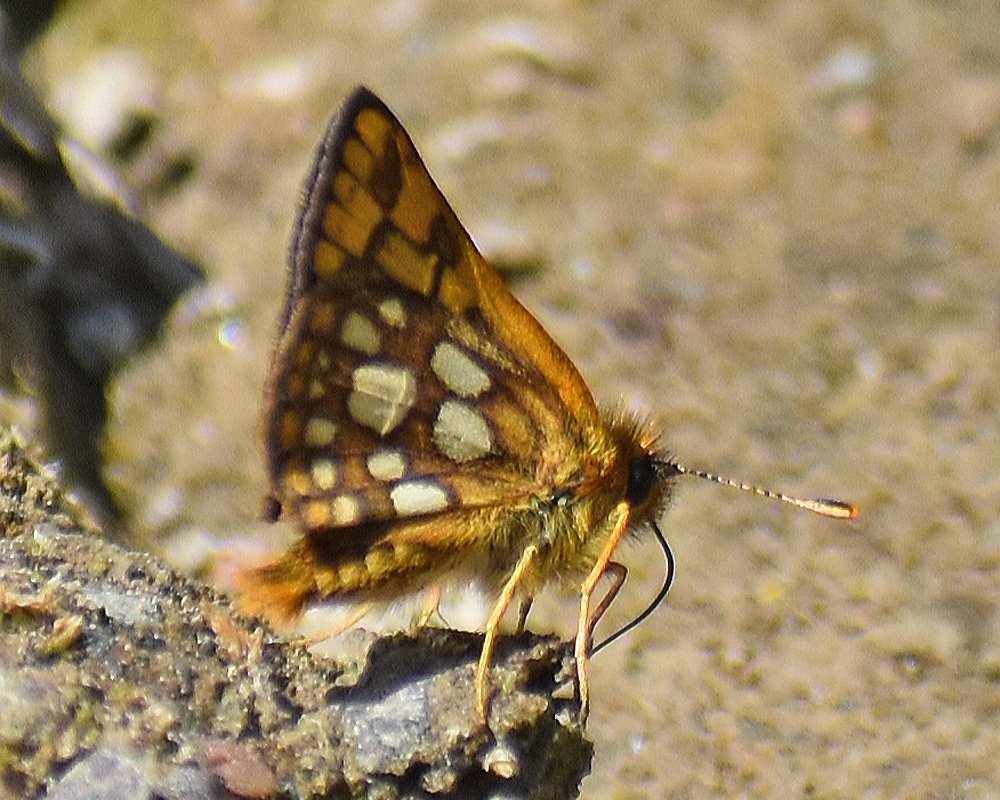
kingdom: Animalia
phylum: Arthropoda
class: Insecta
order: Lepidoptera
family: Hesperiidae
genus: Carterocephalus
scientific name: Carterocephalus palaemon
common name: Chequered Skipper
